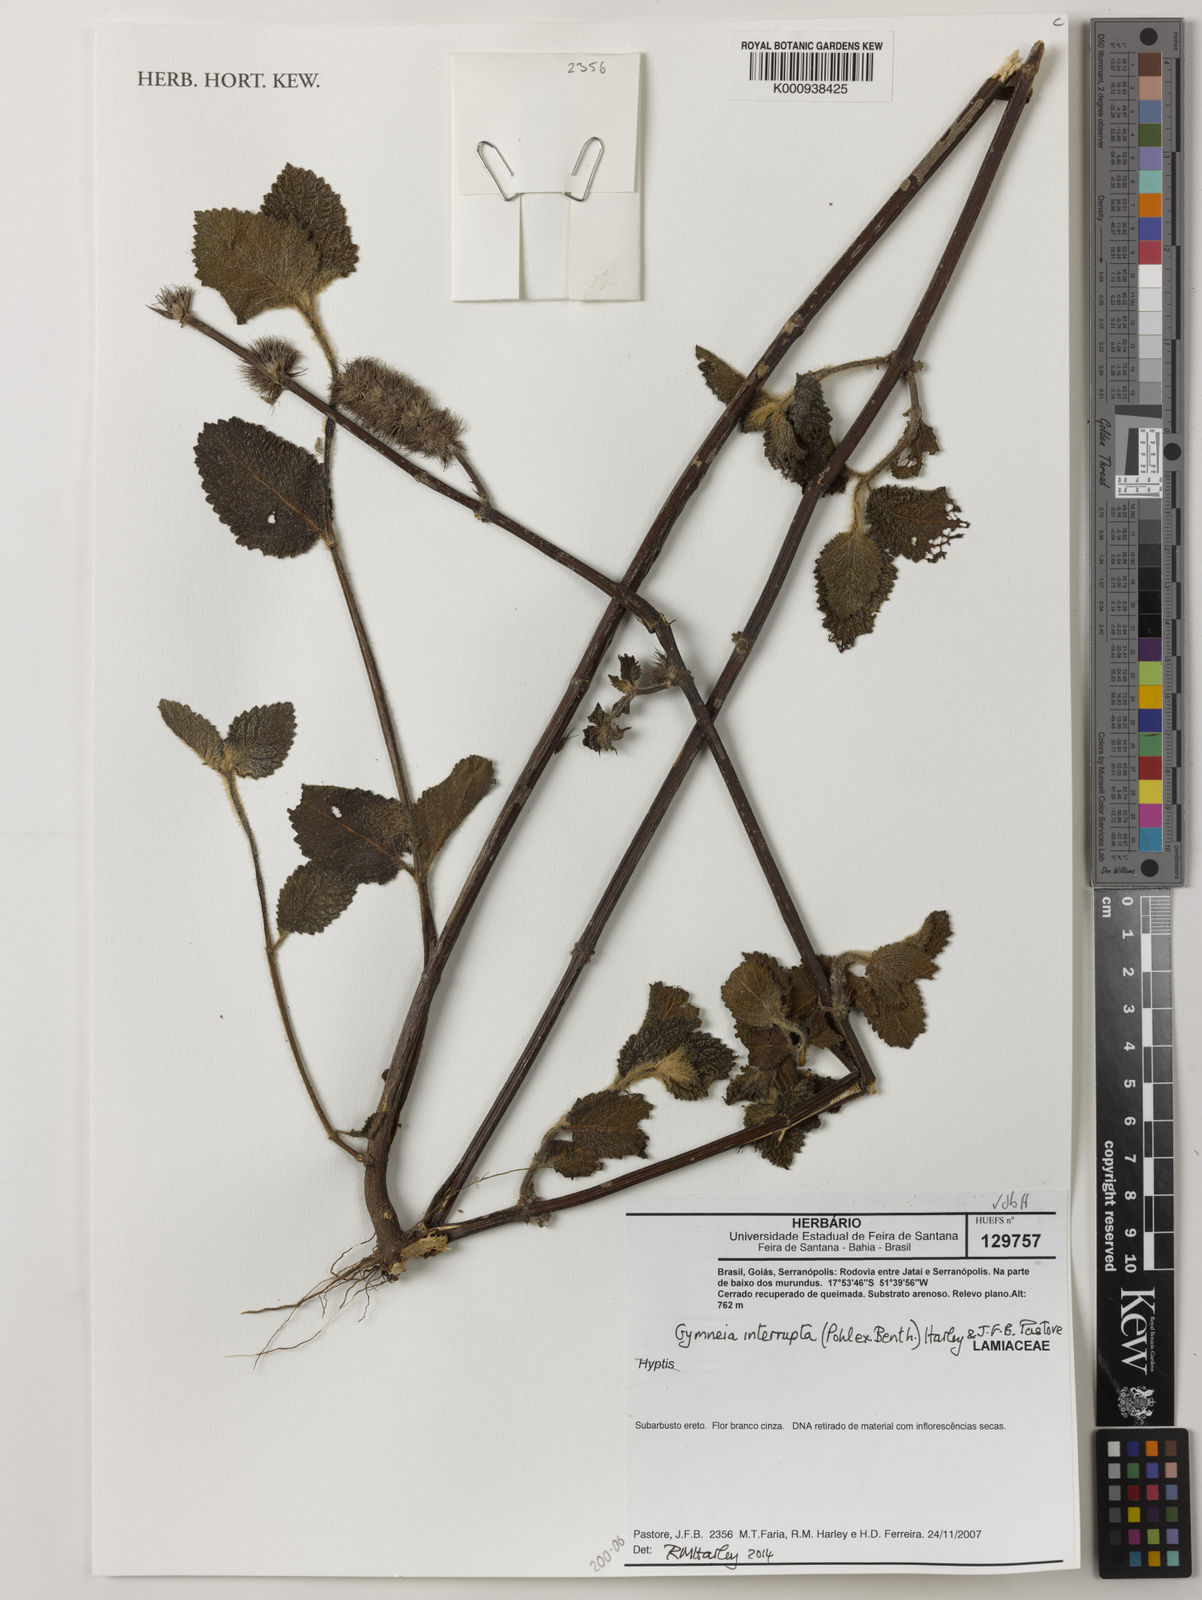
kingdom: Plantae
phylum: Tracheophyta
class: Magnoliopsida
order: Lamiales
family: Lamiaceae
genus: Gymneia
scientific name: Gymneia interrupta
